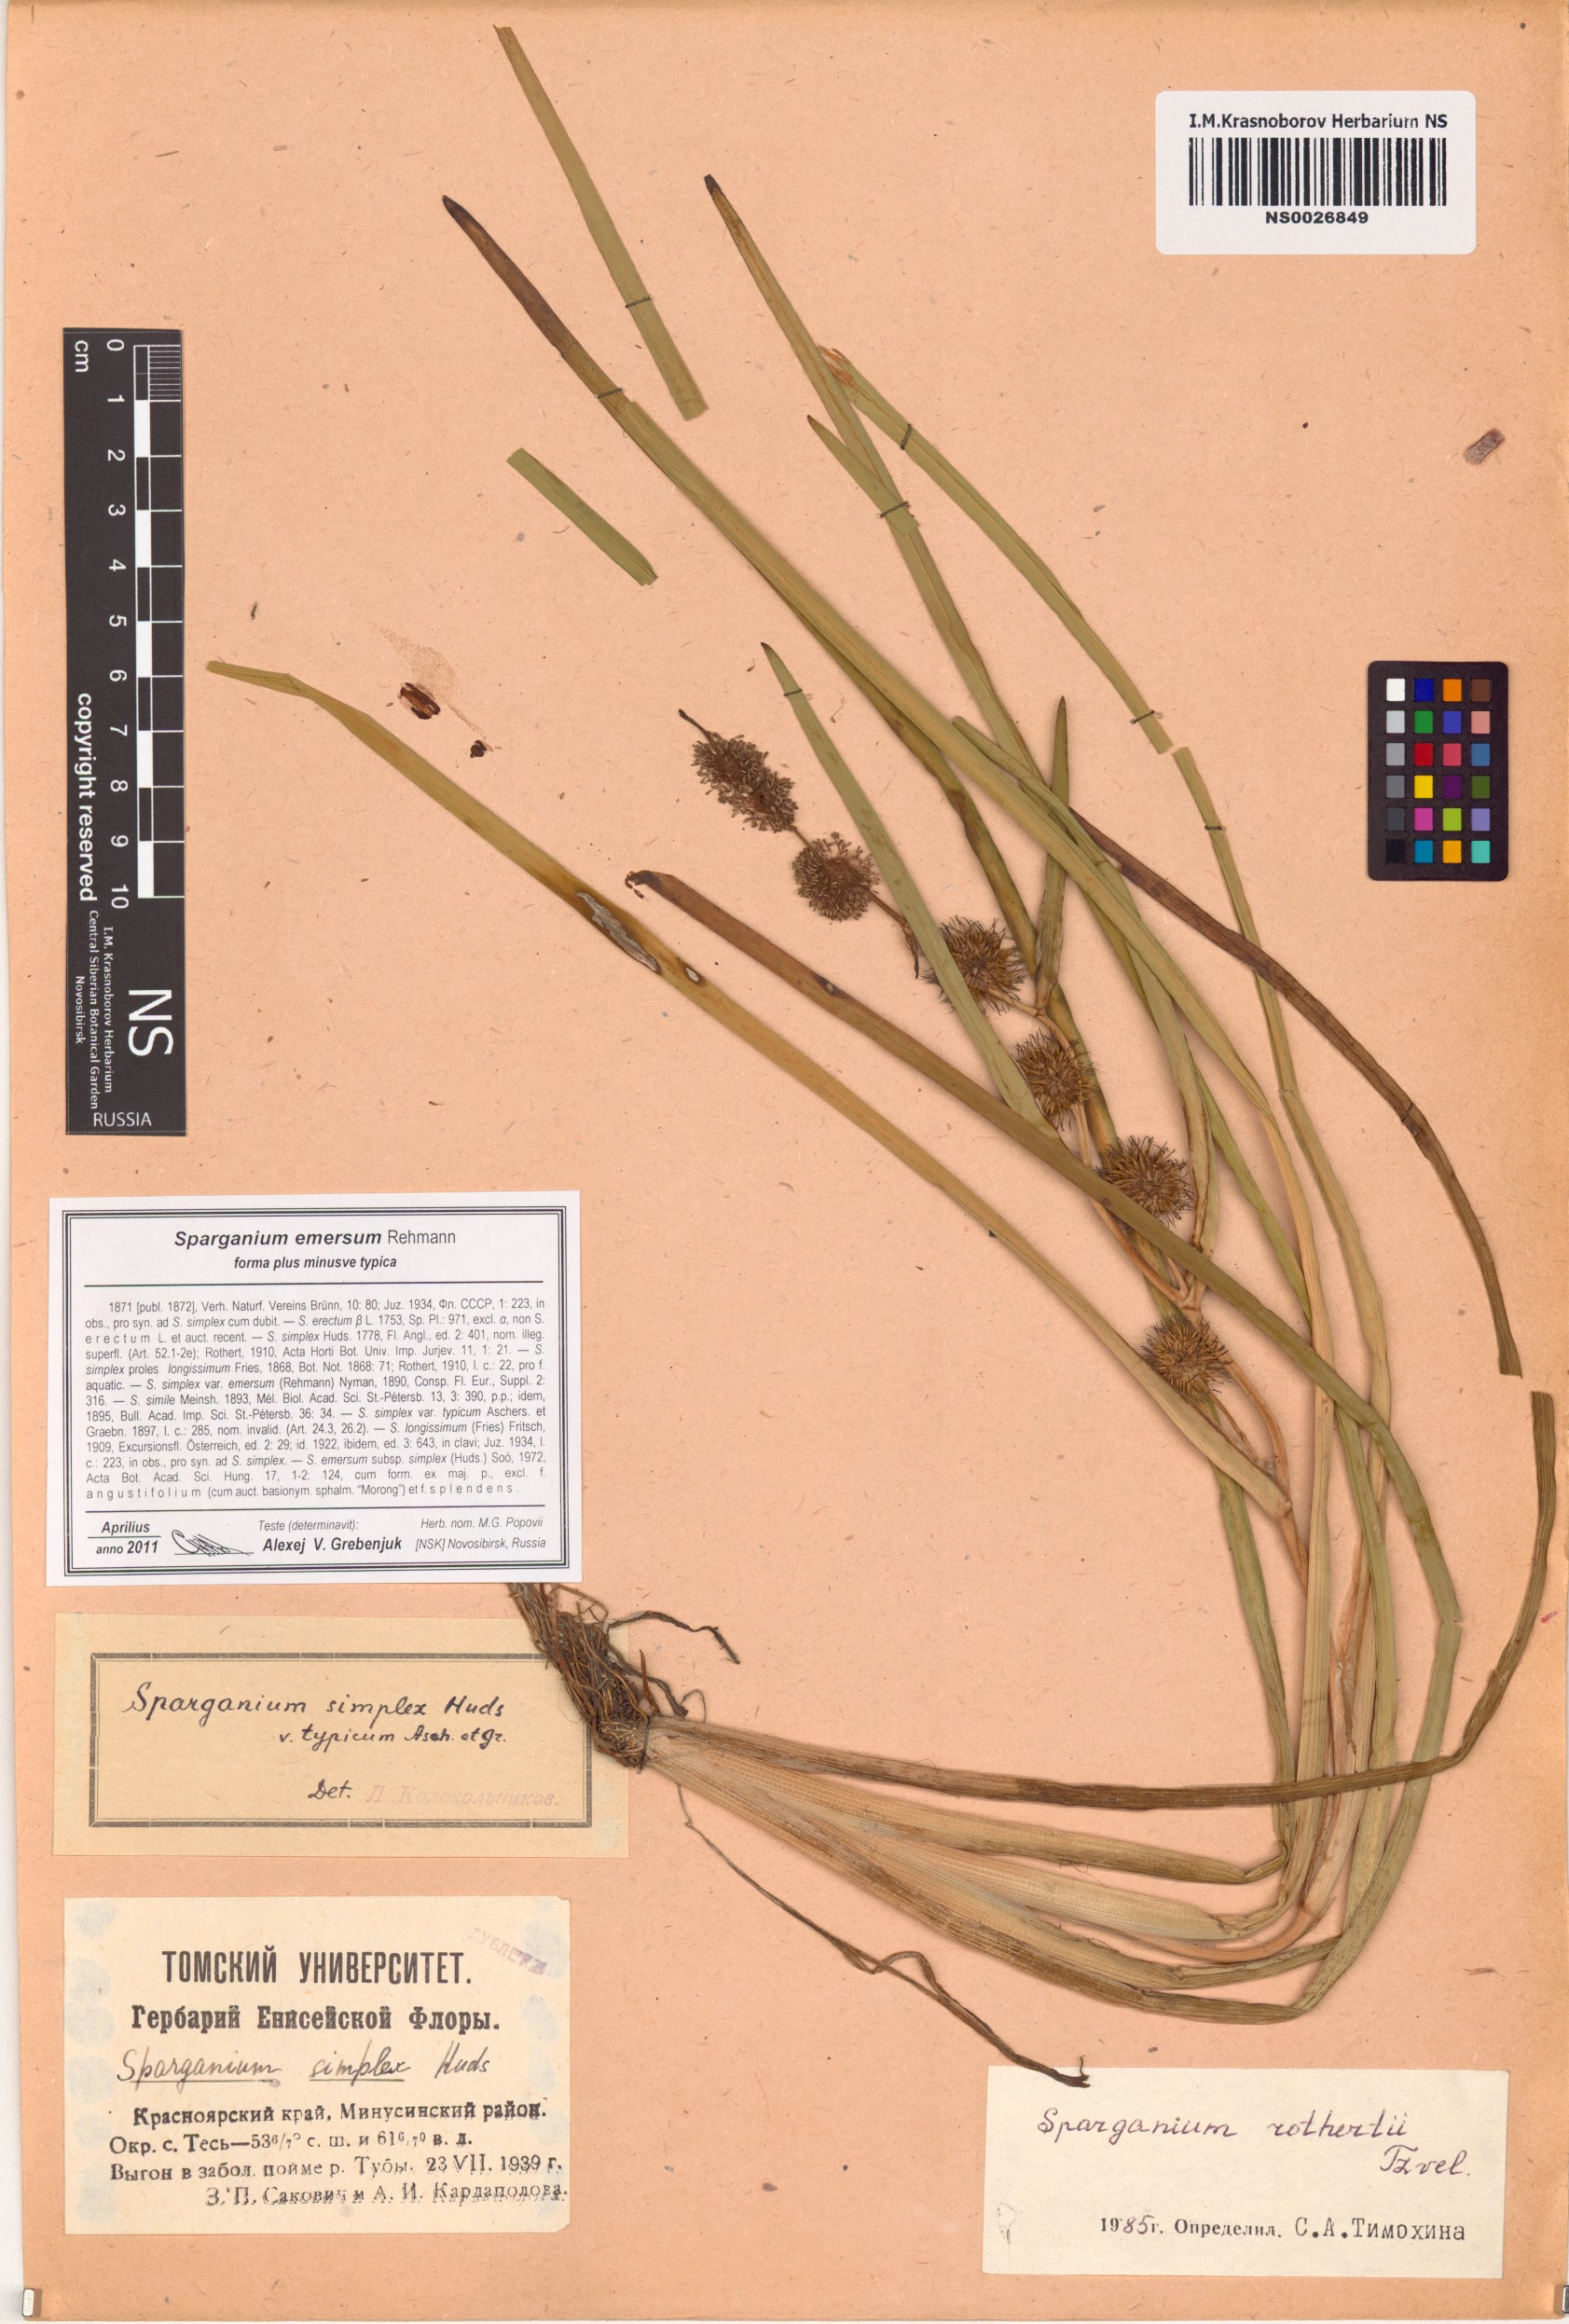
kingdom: Plantae
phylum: Tracheophyta
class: Liliopsida
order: Poales
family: Typhaceae
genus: Sparganium
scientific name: Sparganium emersum
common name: Unbranched bur-reed
